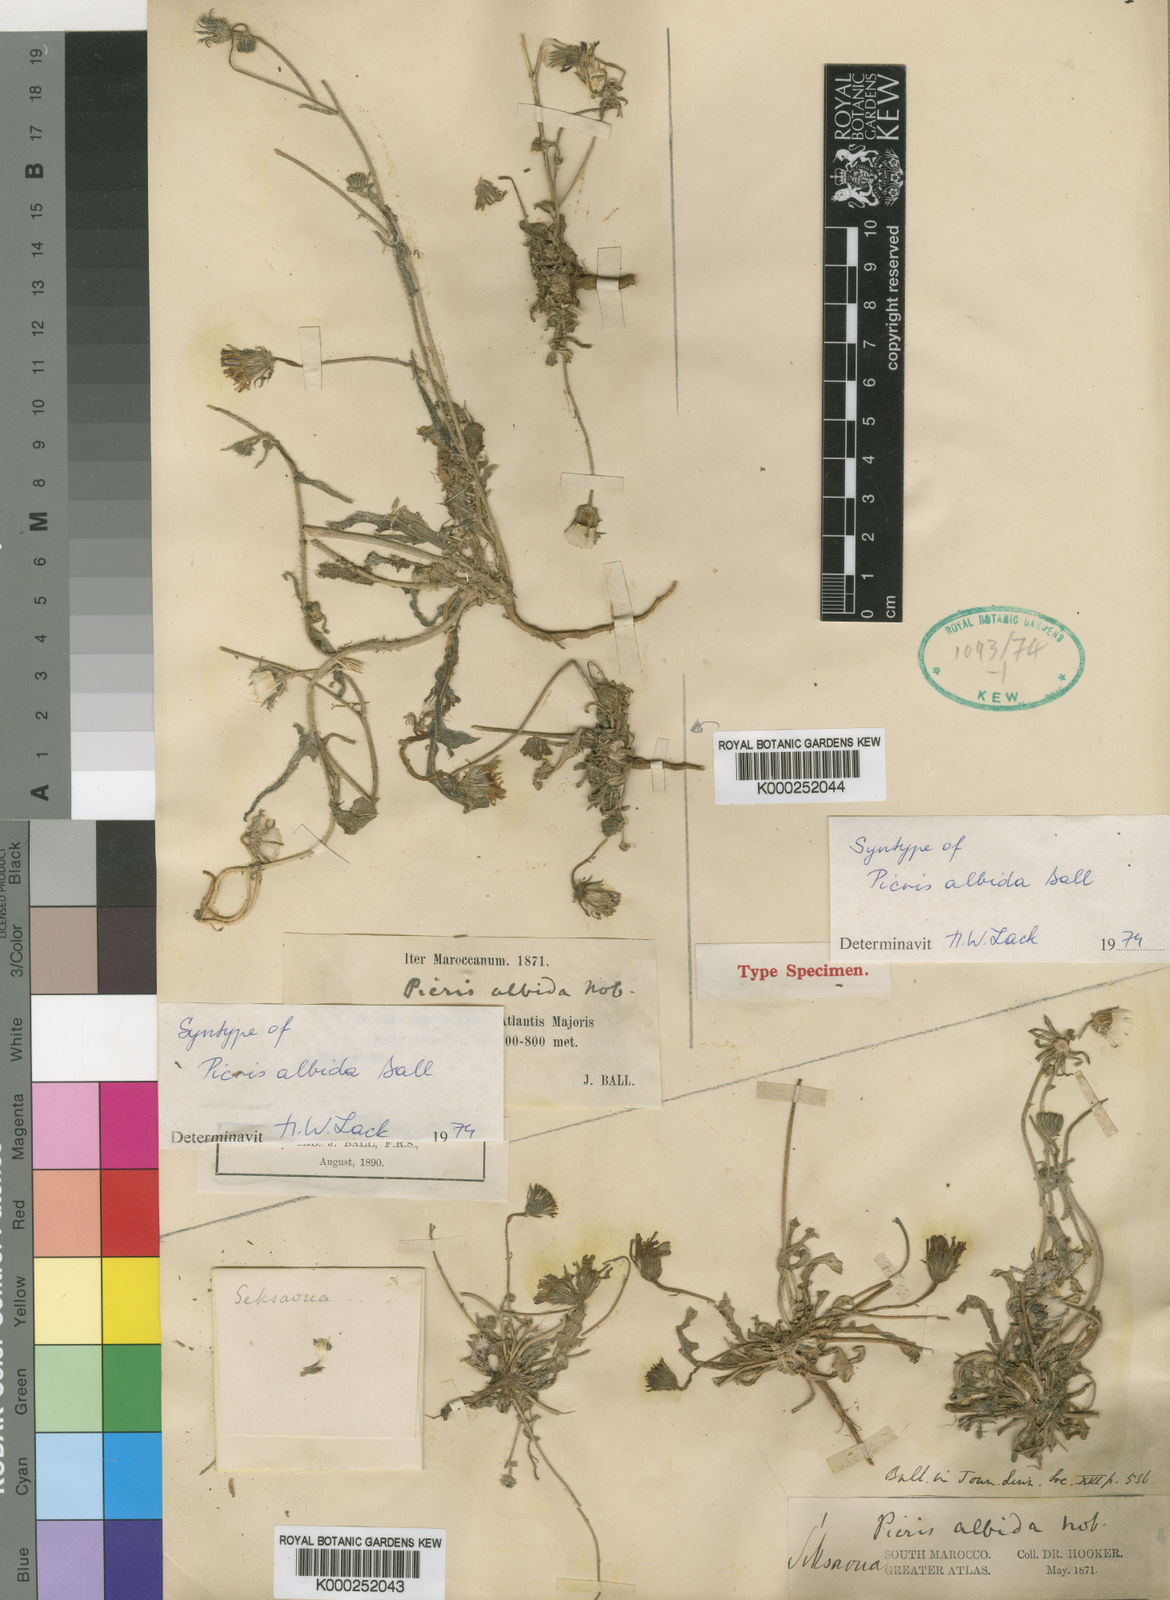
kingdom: Plantae
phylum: Tracheophyta
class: Magnoliopsida
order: Asterales
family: Asteraceae
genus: Picris
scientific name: Picris albida
